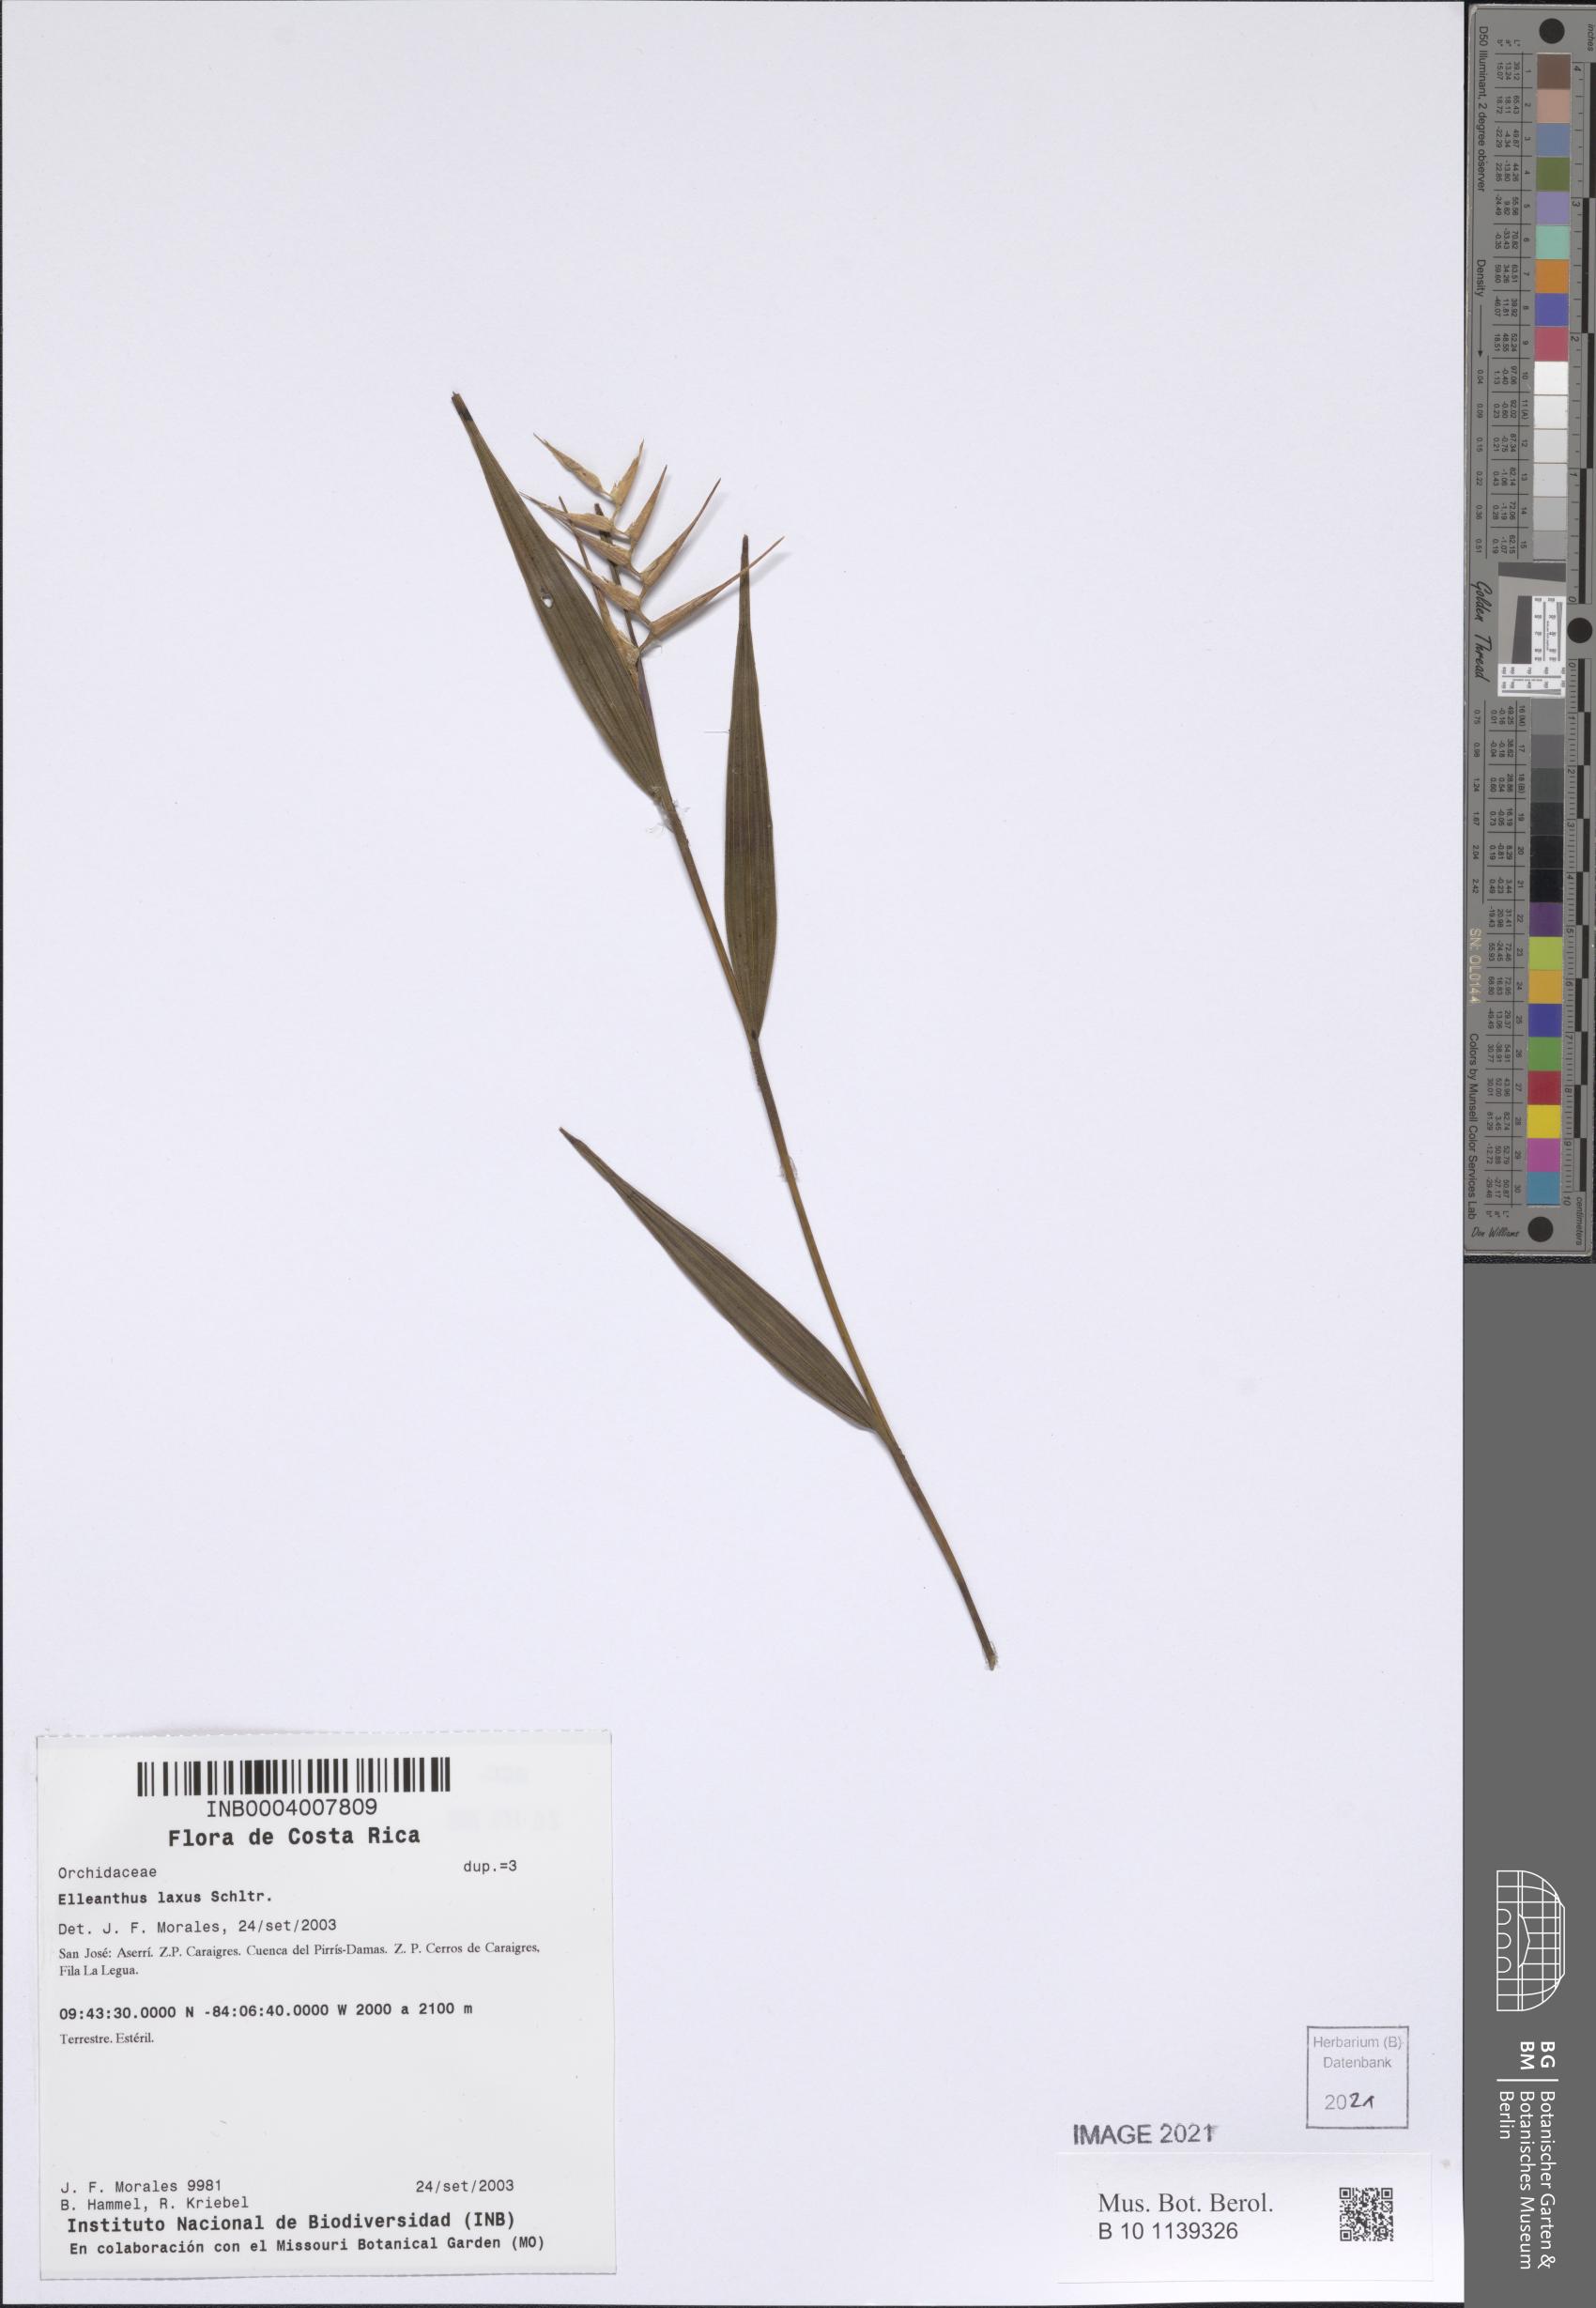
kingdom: Plantae
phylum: Tracheophyta
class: Liliopsida
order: Asparagales
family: Orchidaceae
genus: Elleanthus
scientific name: Elleanthus lancifolius
